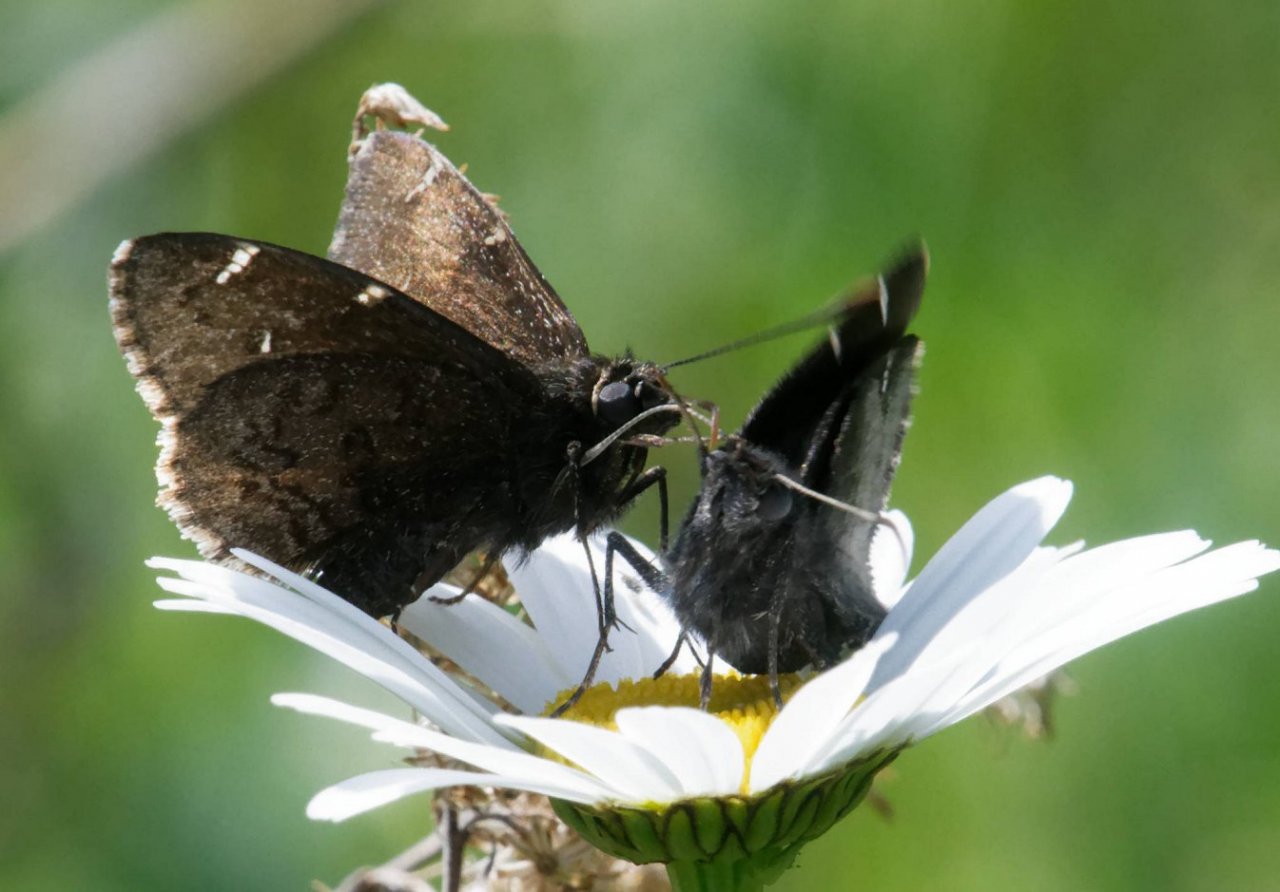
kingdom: Animalia
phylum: Arthropoda
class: Insecta
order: Lepidoptera
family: Hesperiidae
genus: Autochton
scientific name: Autochton
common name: Northern Cloudywing
